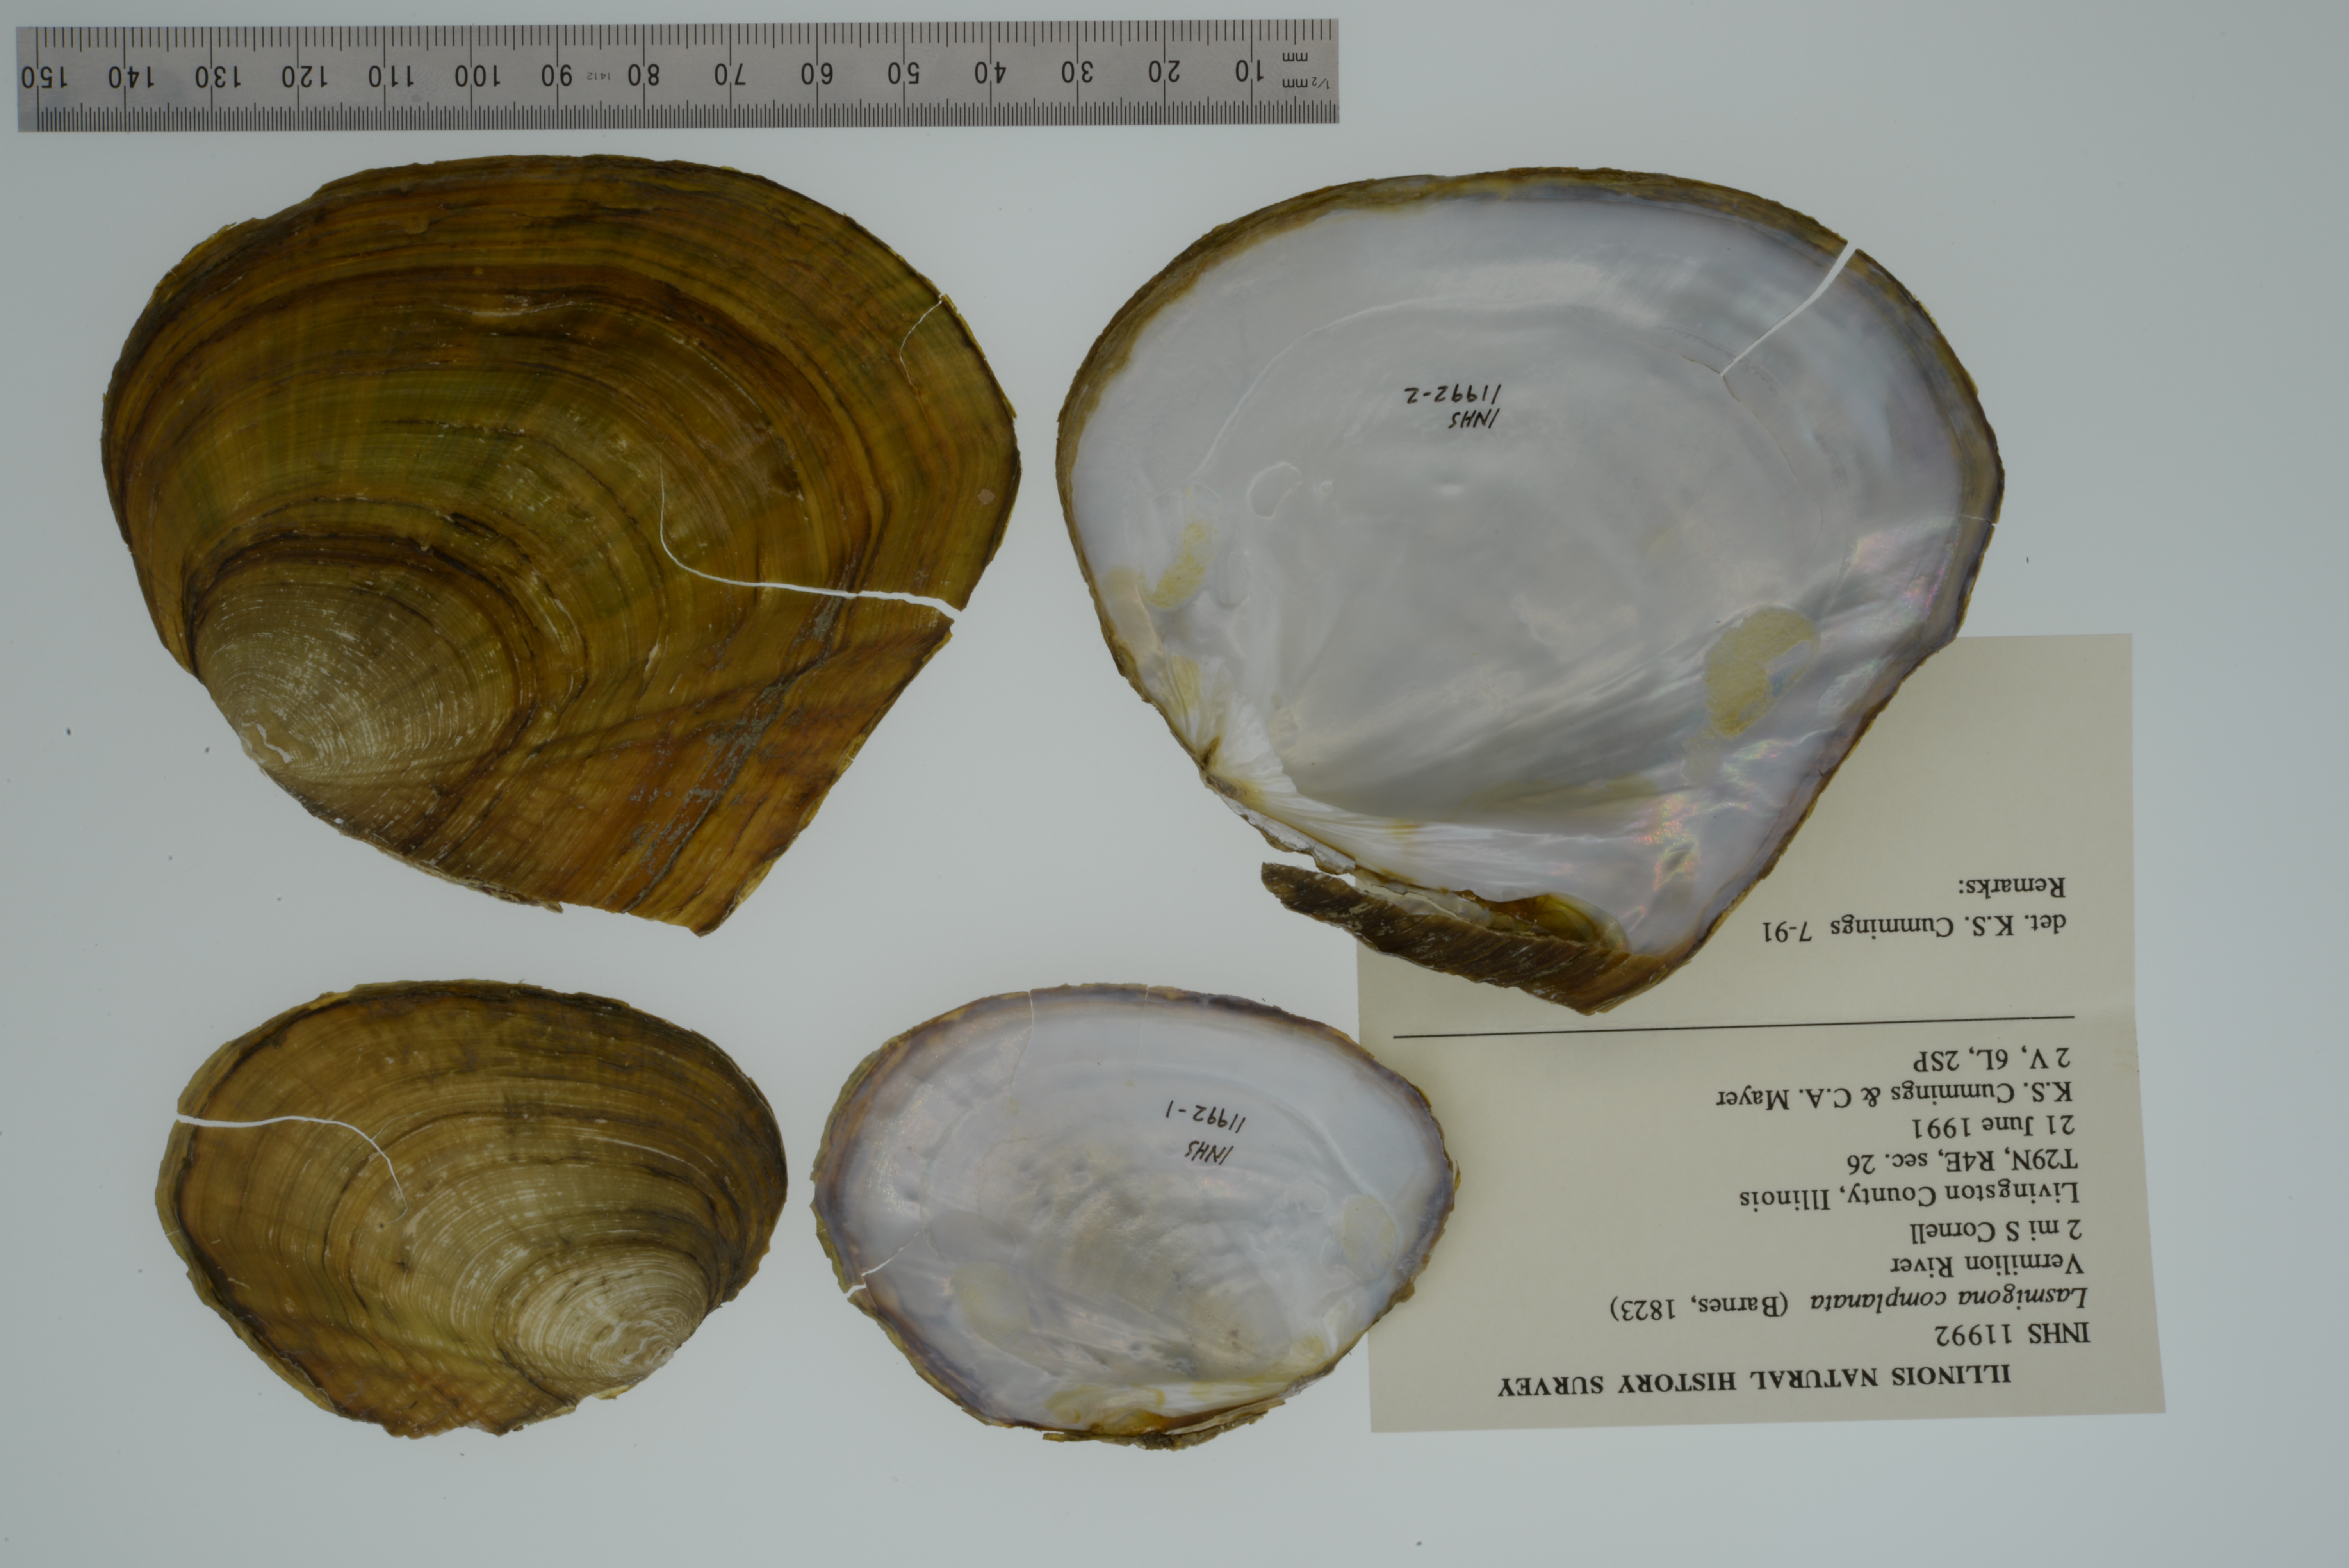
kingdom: Animalia
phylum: Mollusca
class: Bivalvia
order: Unionida
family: Unionidae
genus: Lasmigona
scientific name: Lasmigona complanata
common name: White heelsplitter
